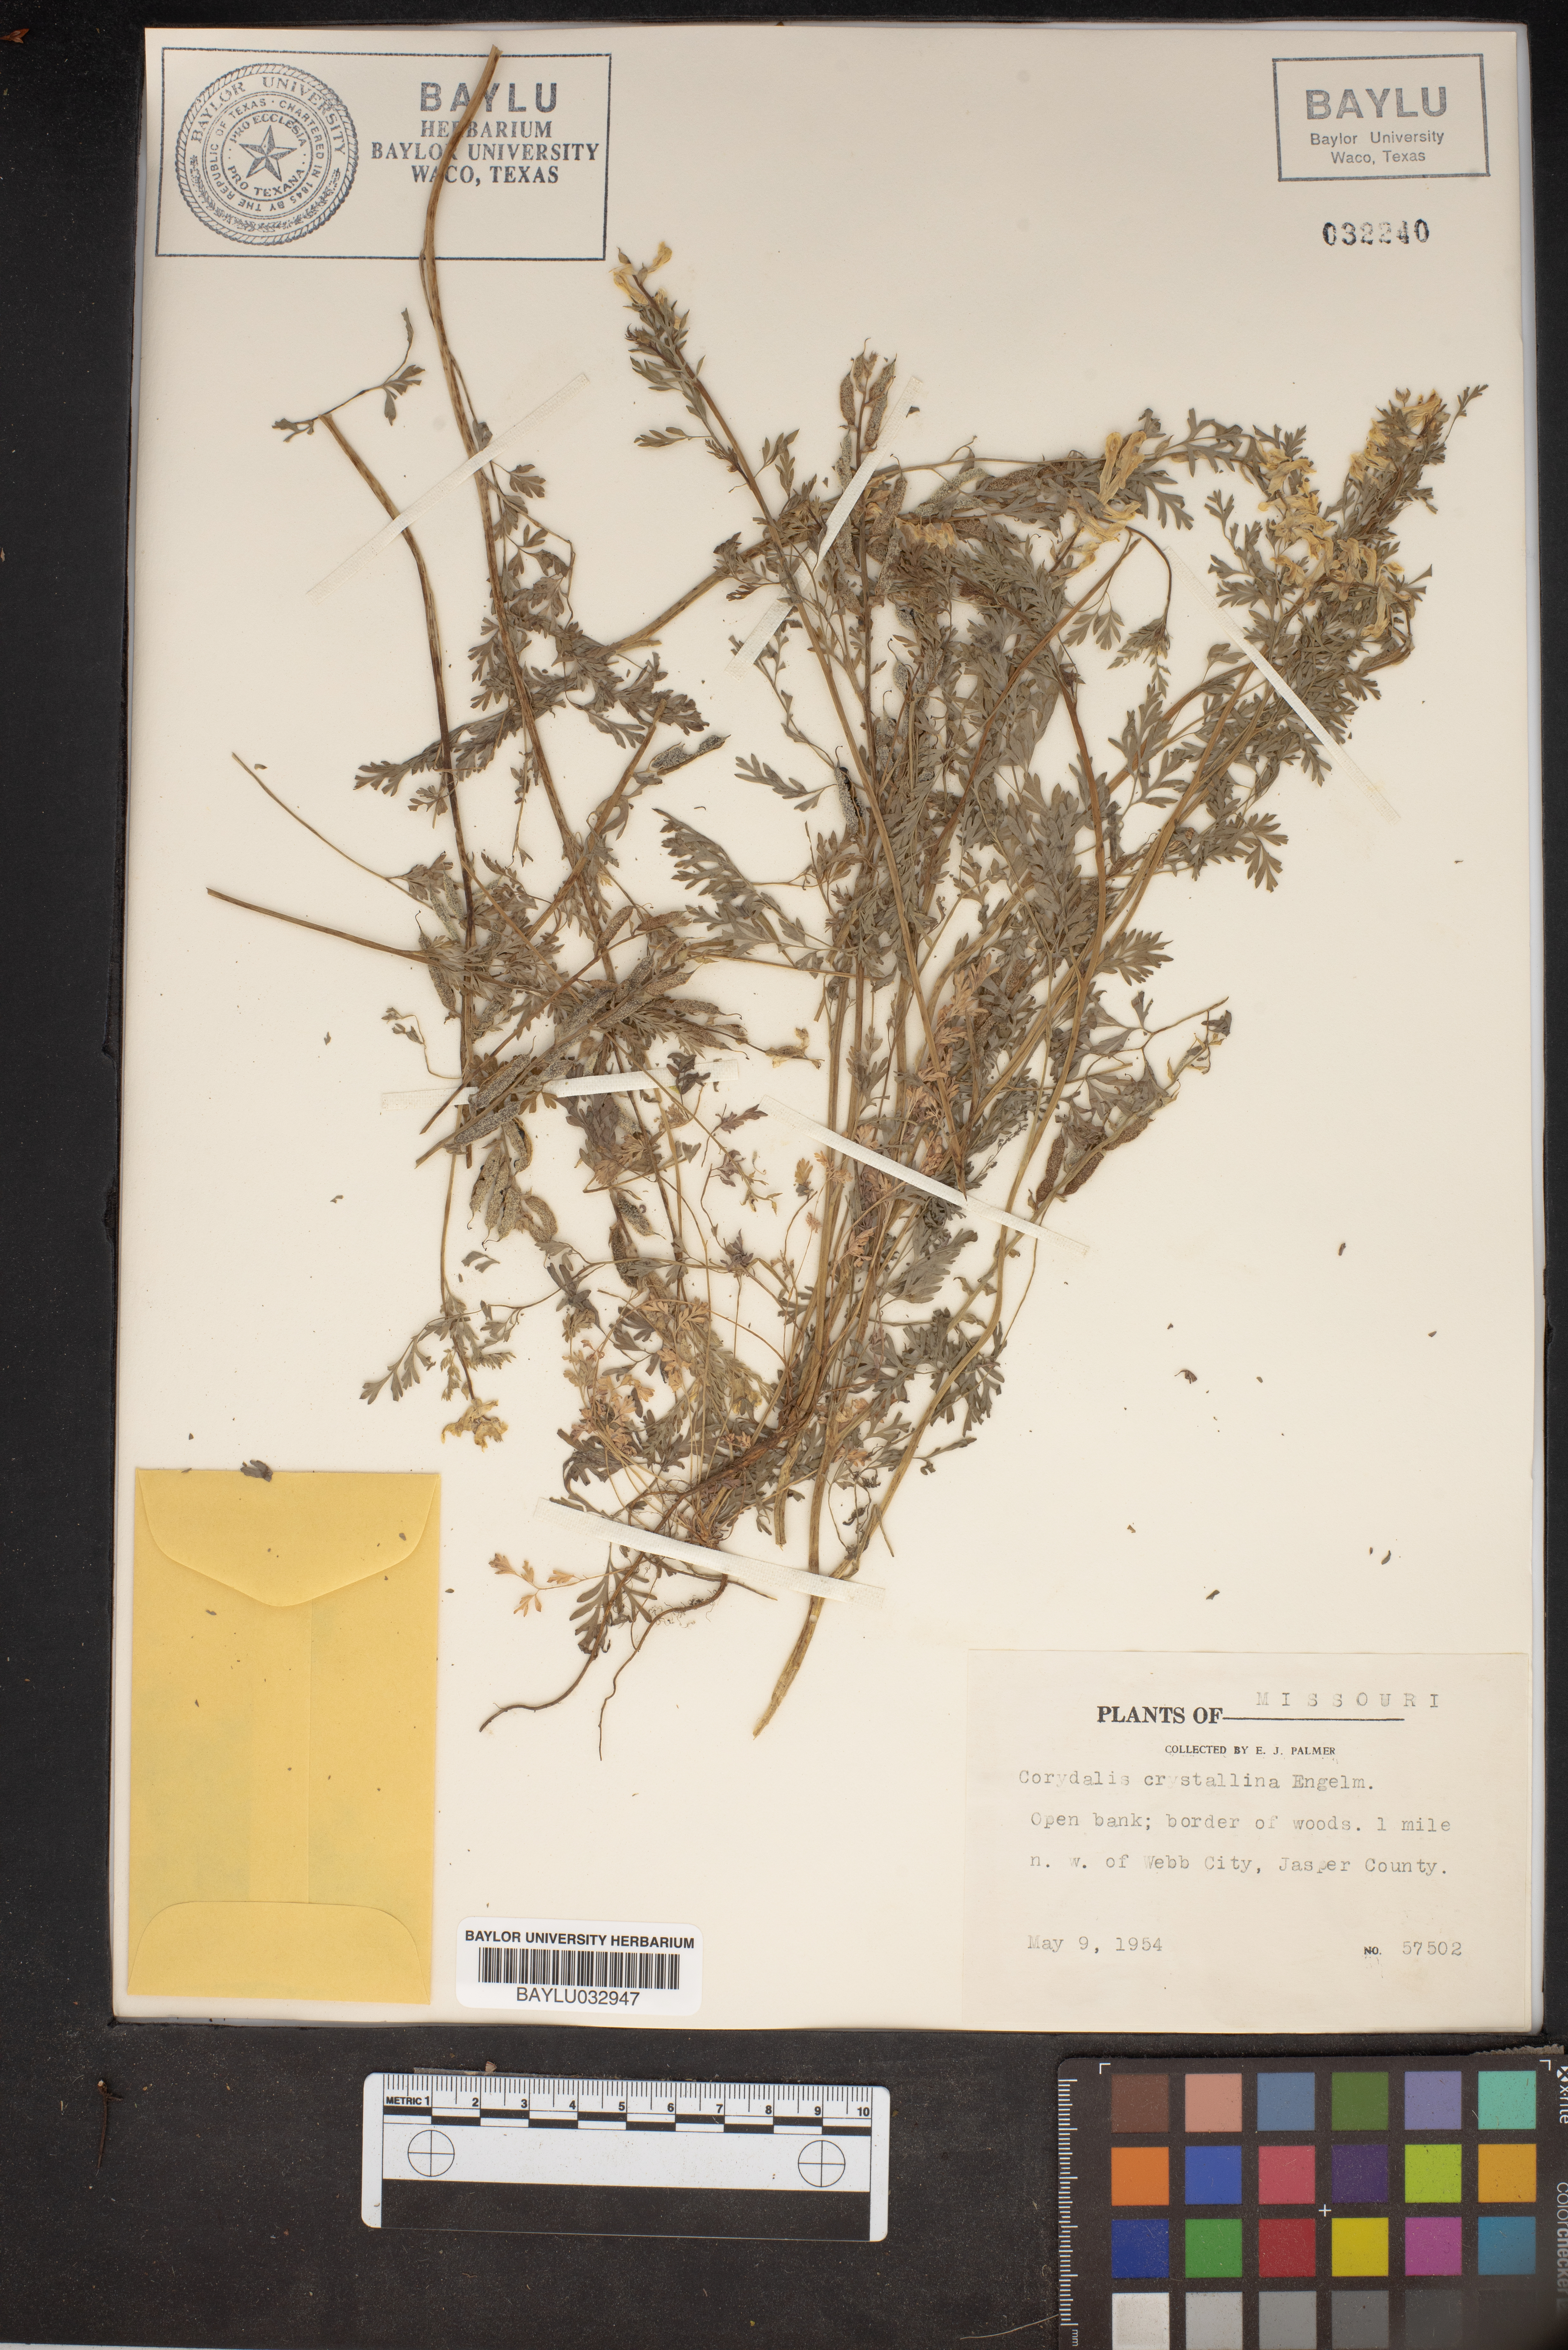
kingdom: Plantae
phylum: Tracheophyta
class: Magnoliopsida
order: Ranunculales
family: Papaveraceae
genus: Corydalis
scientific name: Corydalis crystallina
